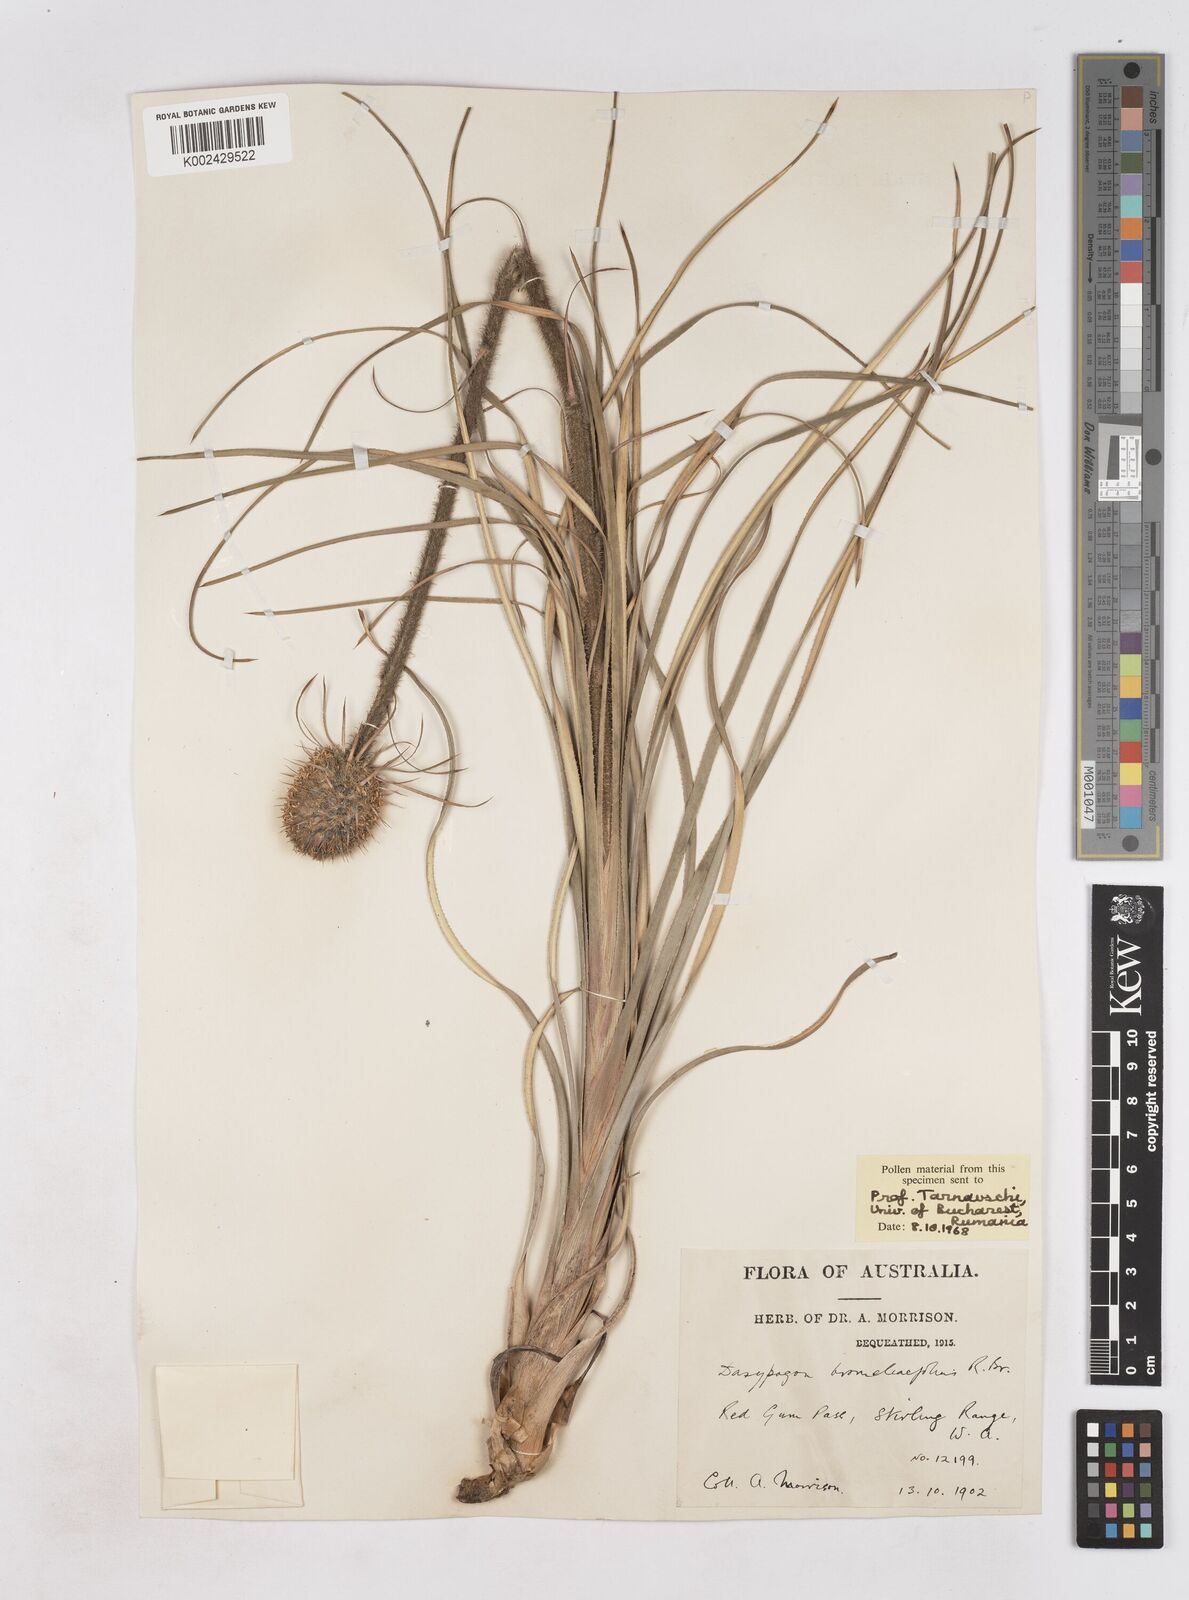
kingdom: Plantae
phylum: Tracheophyta
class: Liliopsida
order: Arecales
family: Dasypogonaceae
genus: Dasypogon
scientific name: Dasypogon bromeliifolius
